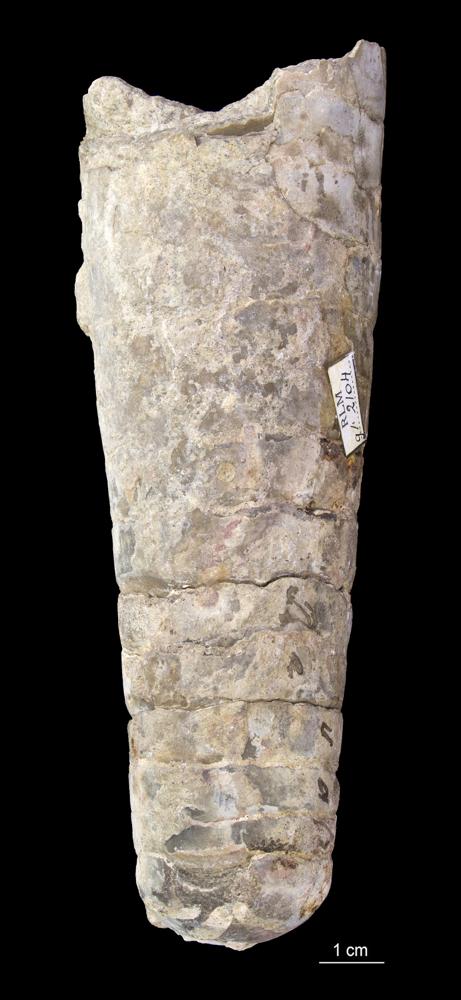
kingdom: Animalia
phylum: Mollusca
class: Cephalopoda
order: Orthocerida
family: Orthoceratidae
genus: Orthoceras
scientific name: Orthoceras
